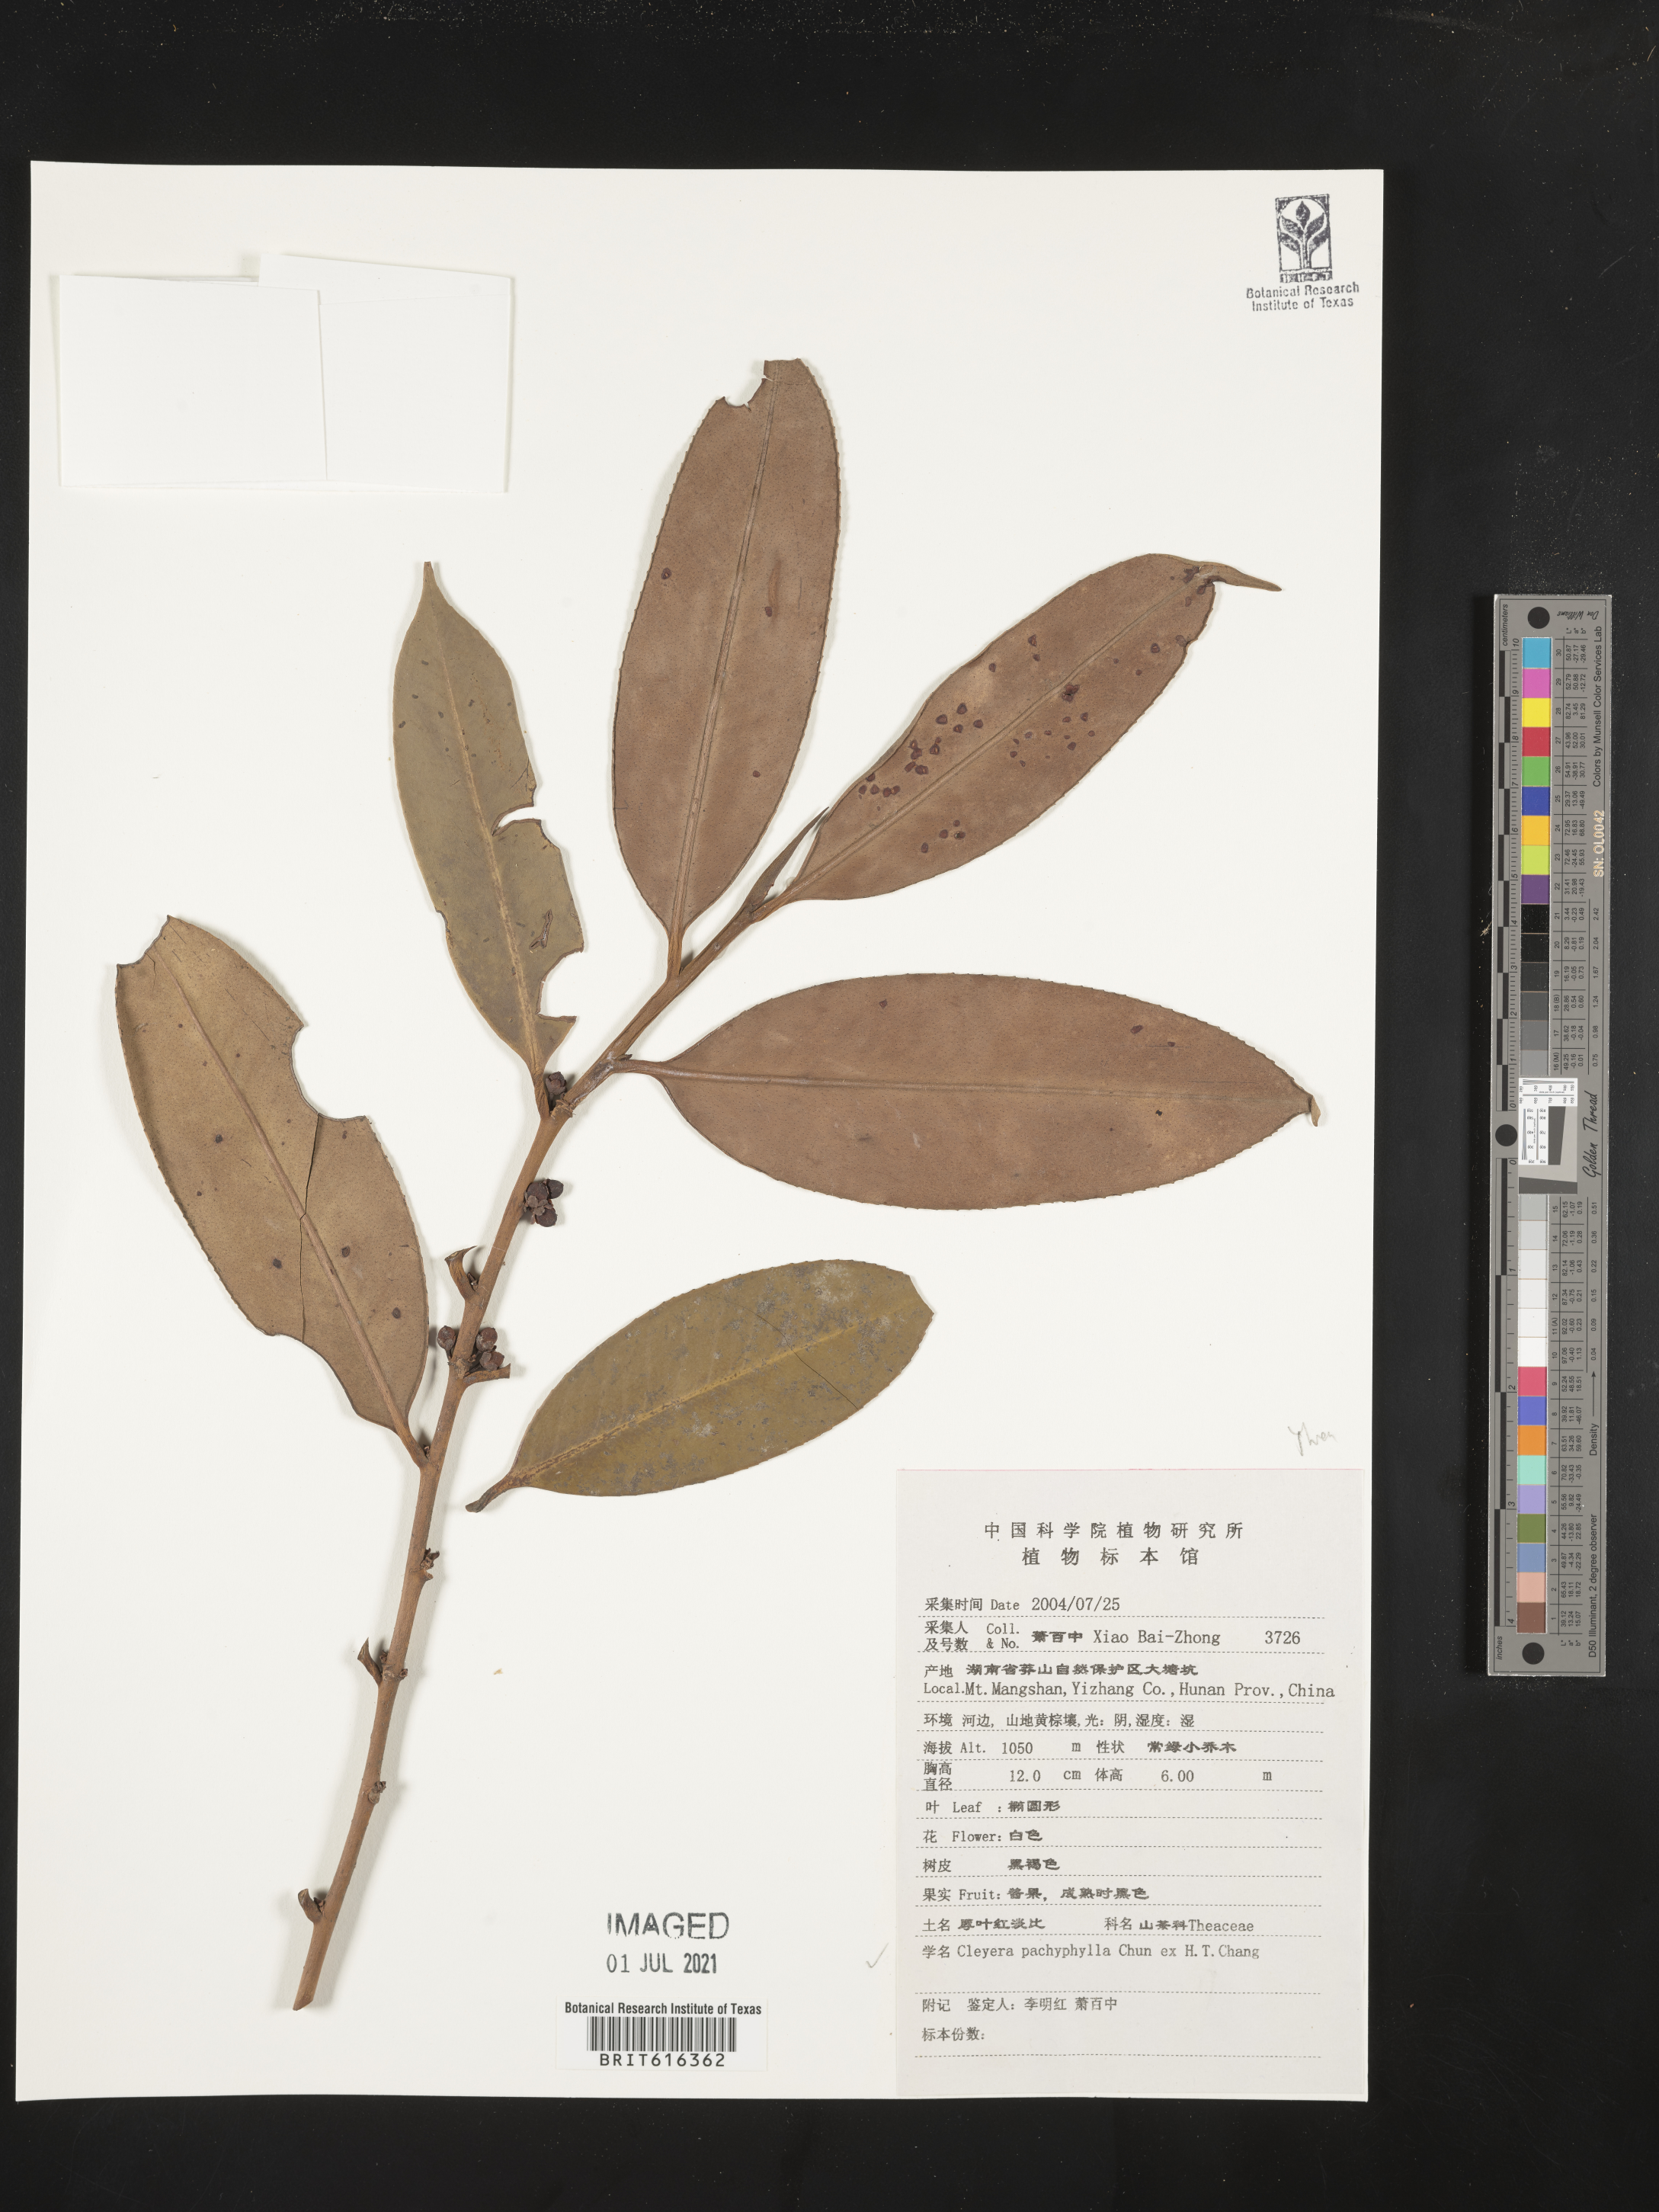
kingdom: Plantae
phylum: Tracheophyta
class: Magnoliopsida
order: Ericales
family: Pentaphylacaceae
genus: Cleyera
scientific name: Cleyera pachyphylla
